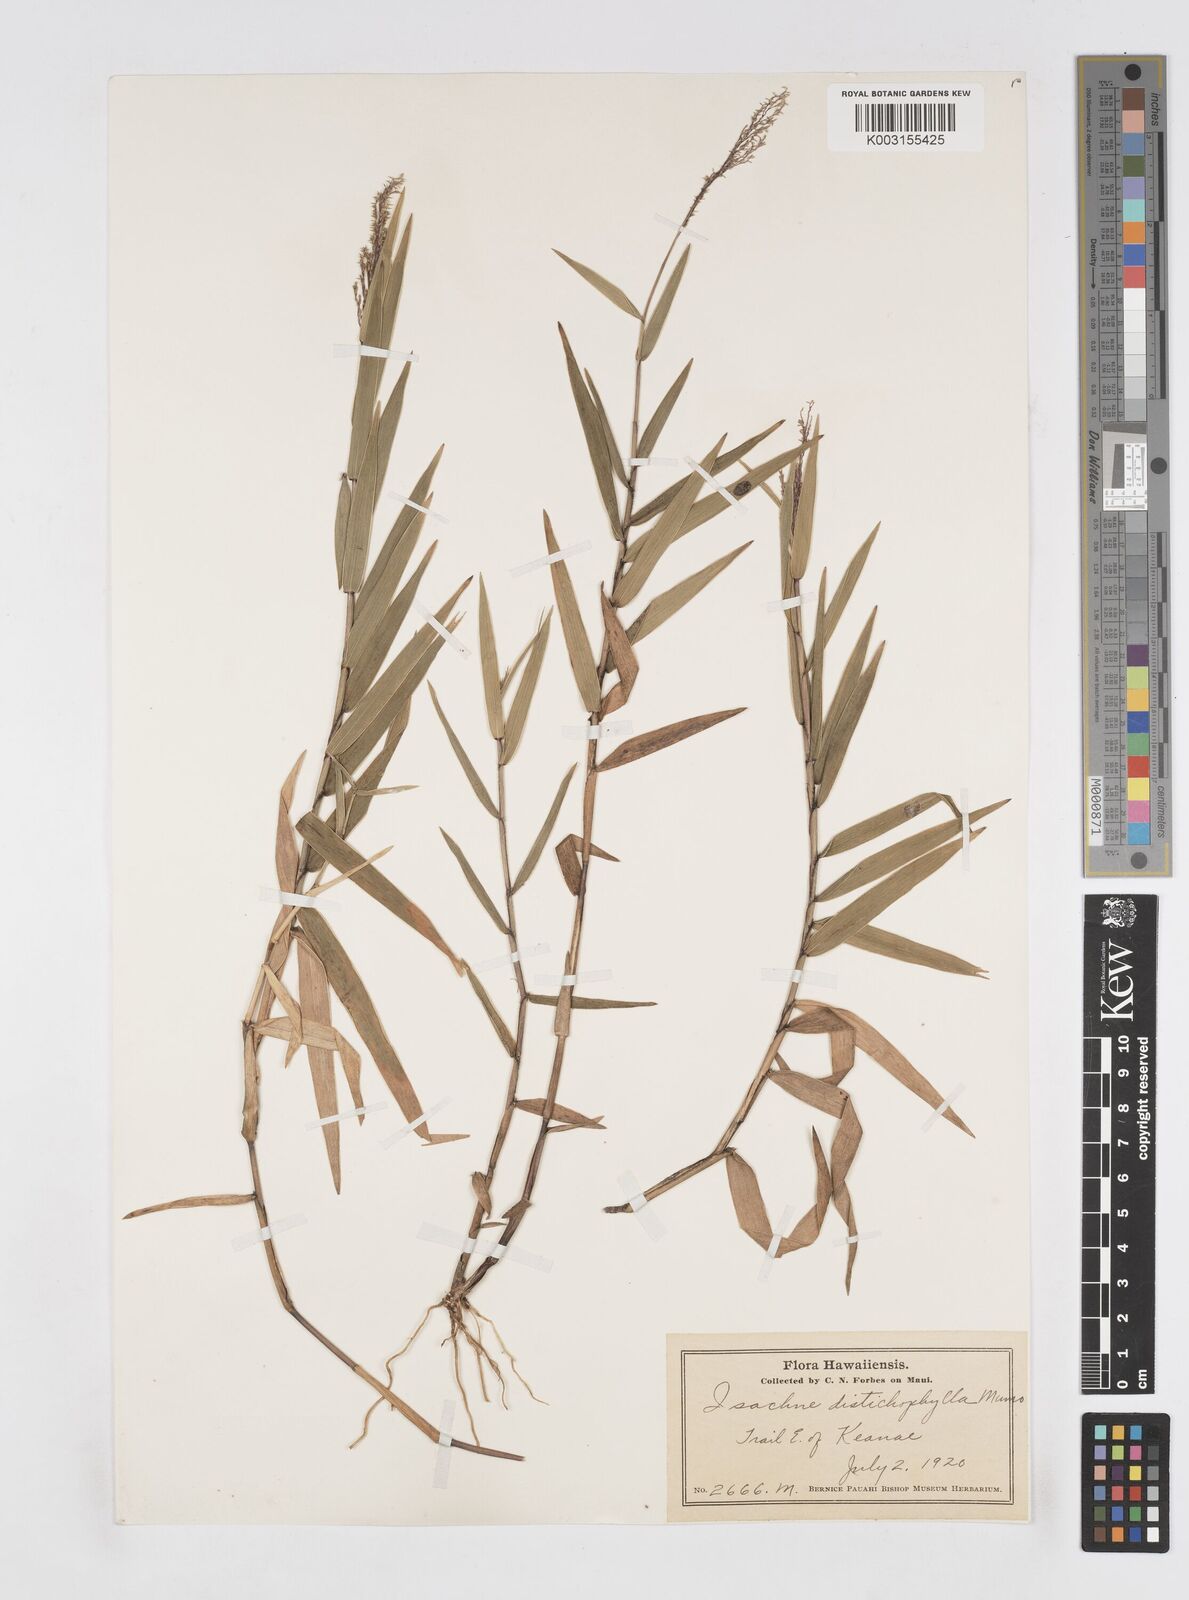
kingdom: Plantae
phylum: Tracheophyta
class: Liliopsida
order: Poales
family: Poaceae
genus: Isachne
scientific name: Isachne distichophylla
